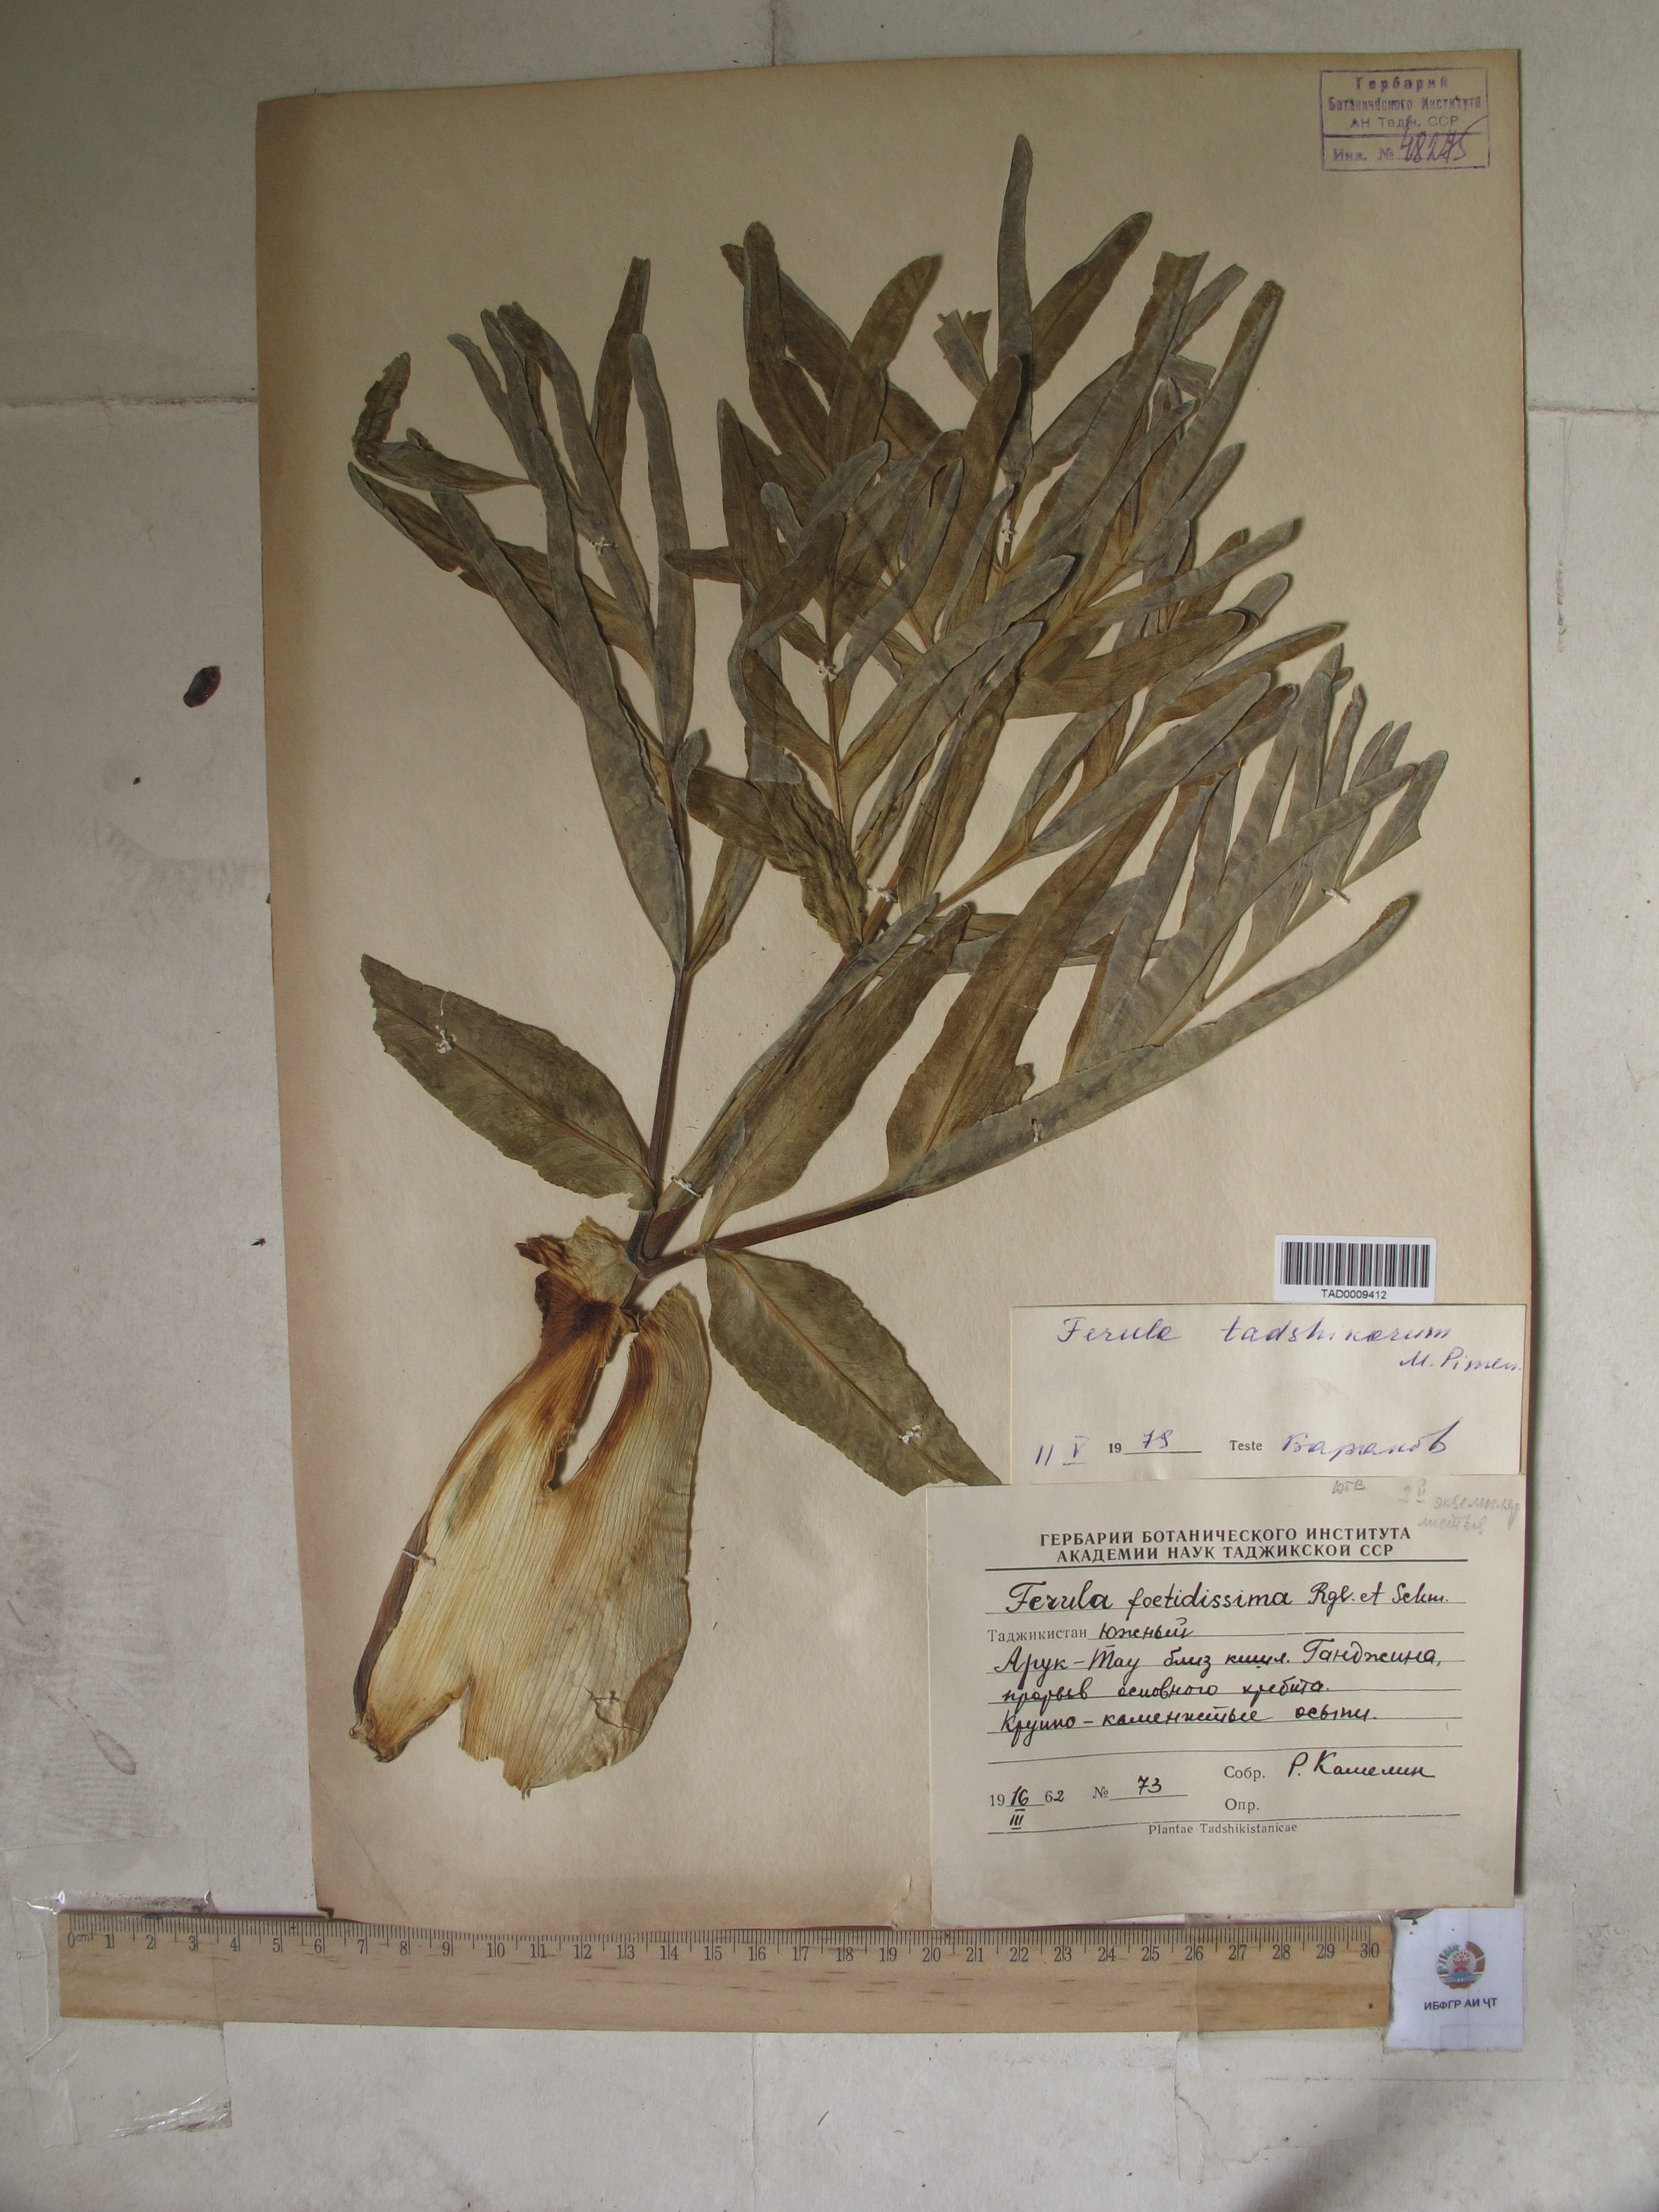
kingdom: Plantae
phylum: Tracheophyta
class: Magnoliopsida
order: Apiales
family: Apiaceae
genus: Ferula
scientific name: Ferula tadshikorum
